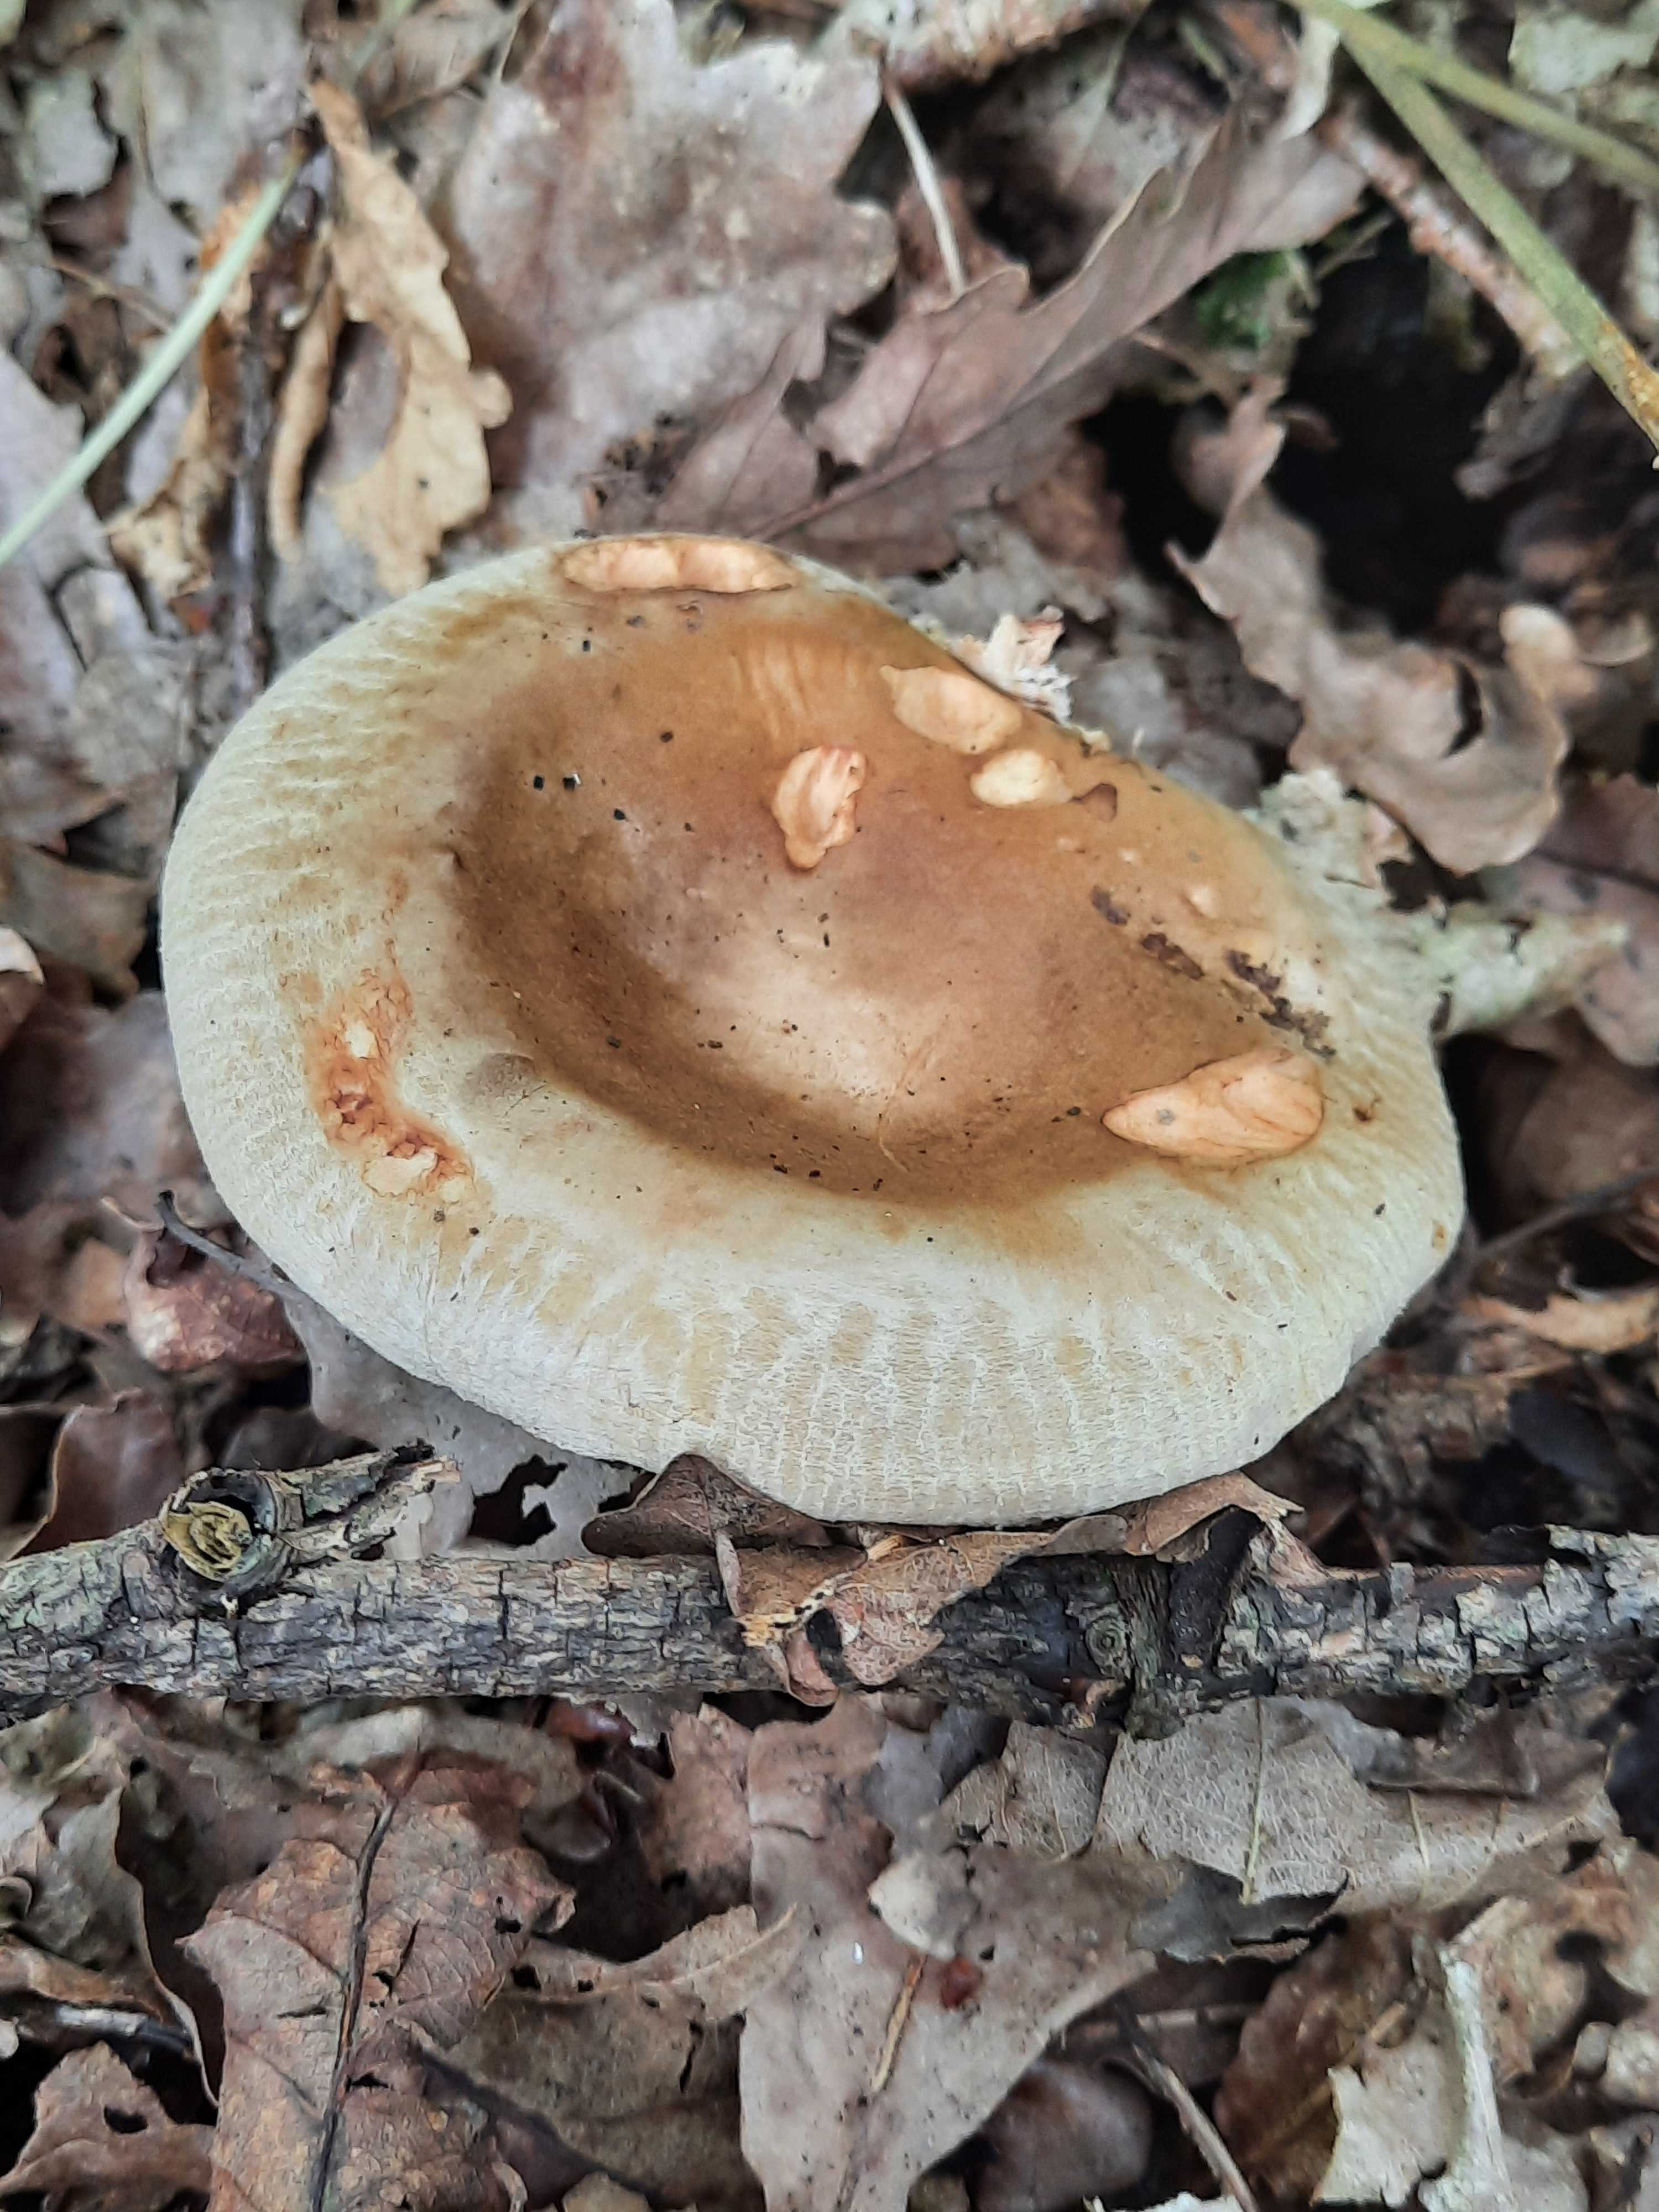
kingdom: Fungi
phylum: Basidiomycota
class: Agaricomycetes
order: Boletales
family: Paxillaceae
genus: Paxillus
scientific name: Paxillus involutus
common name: almindelig netbladhat
